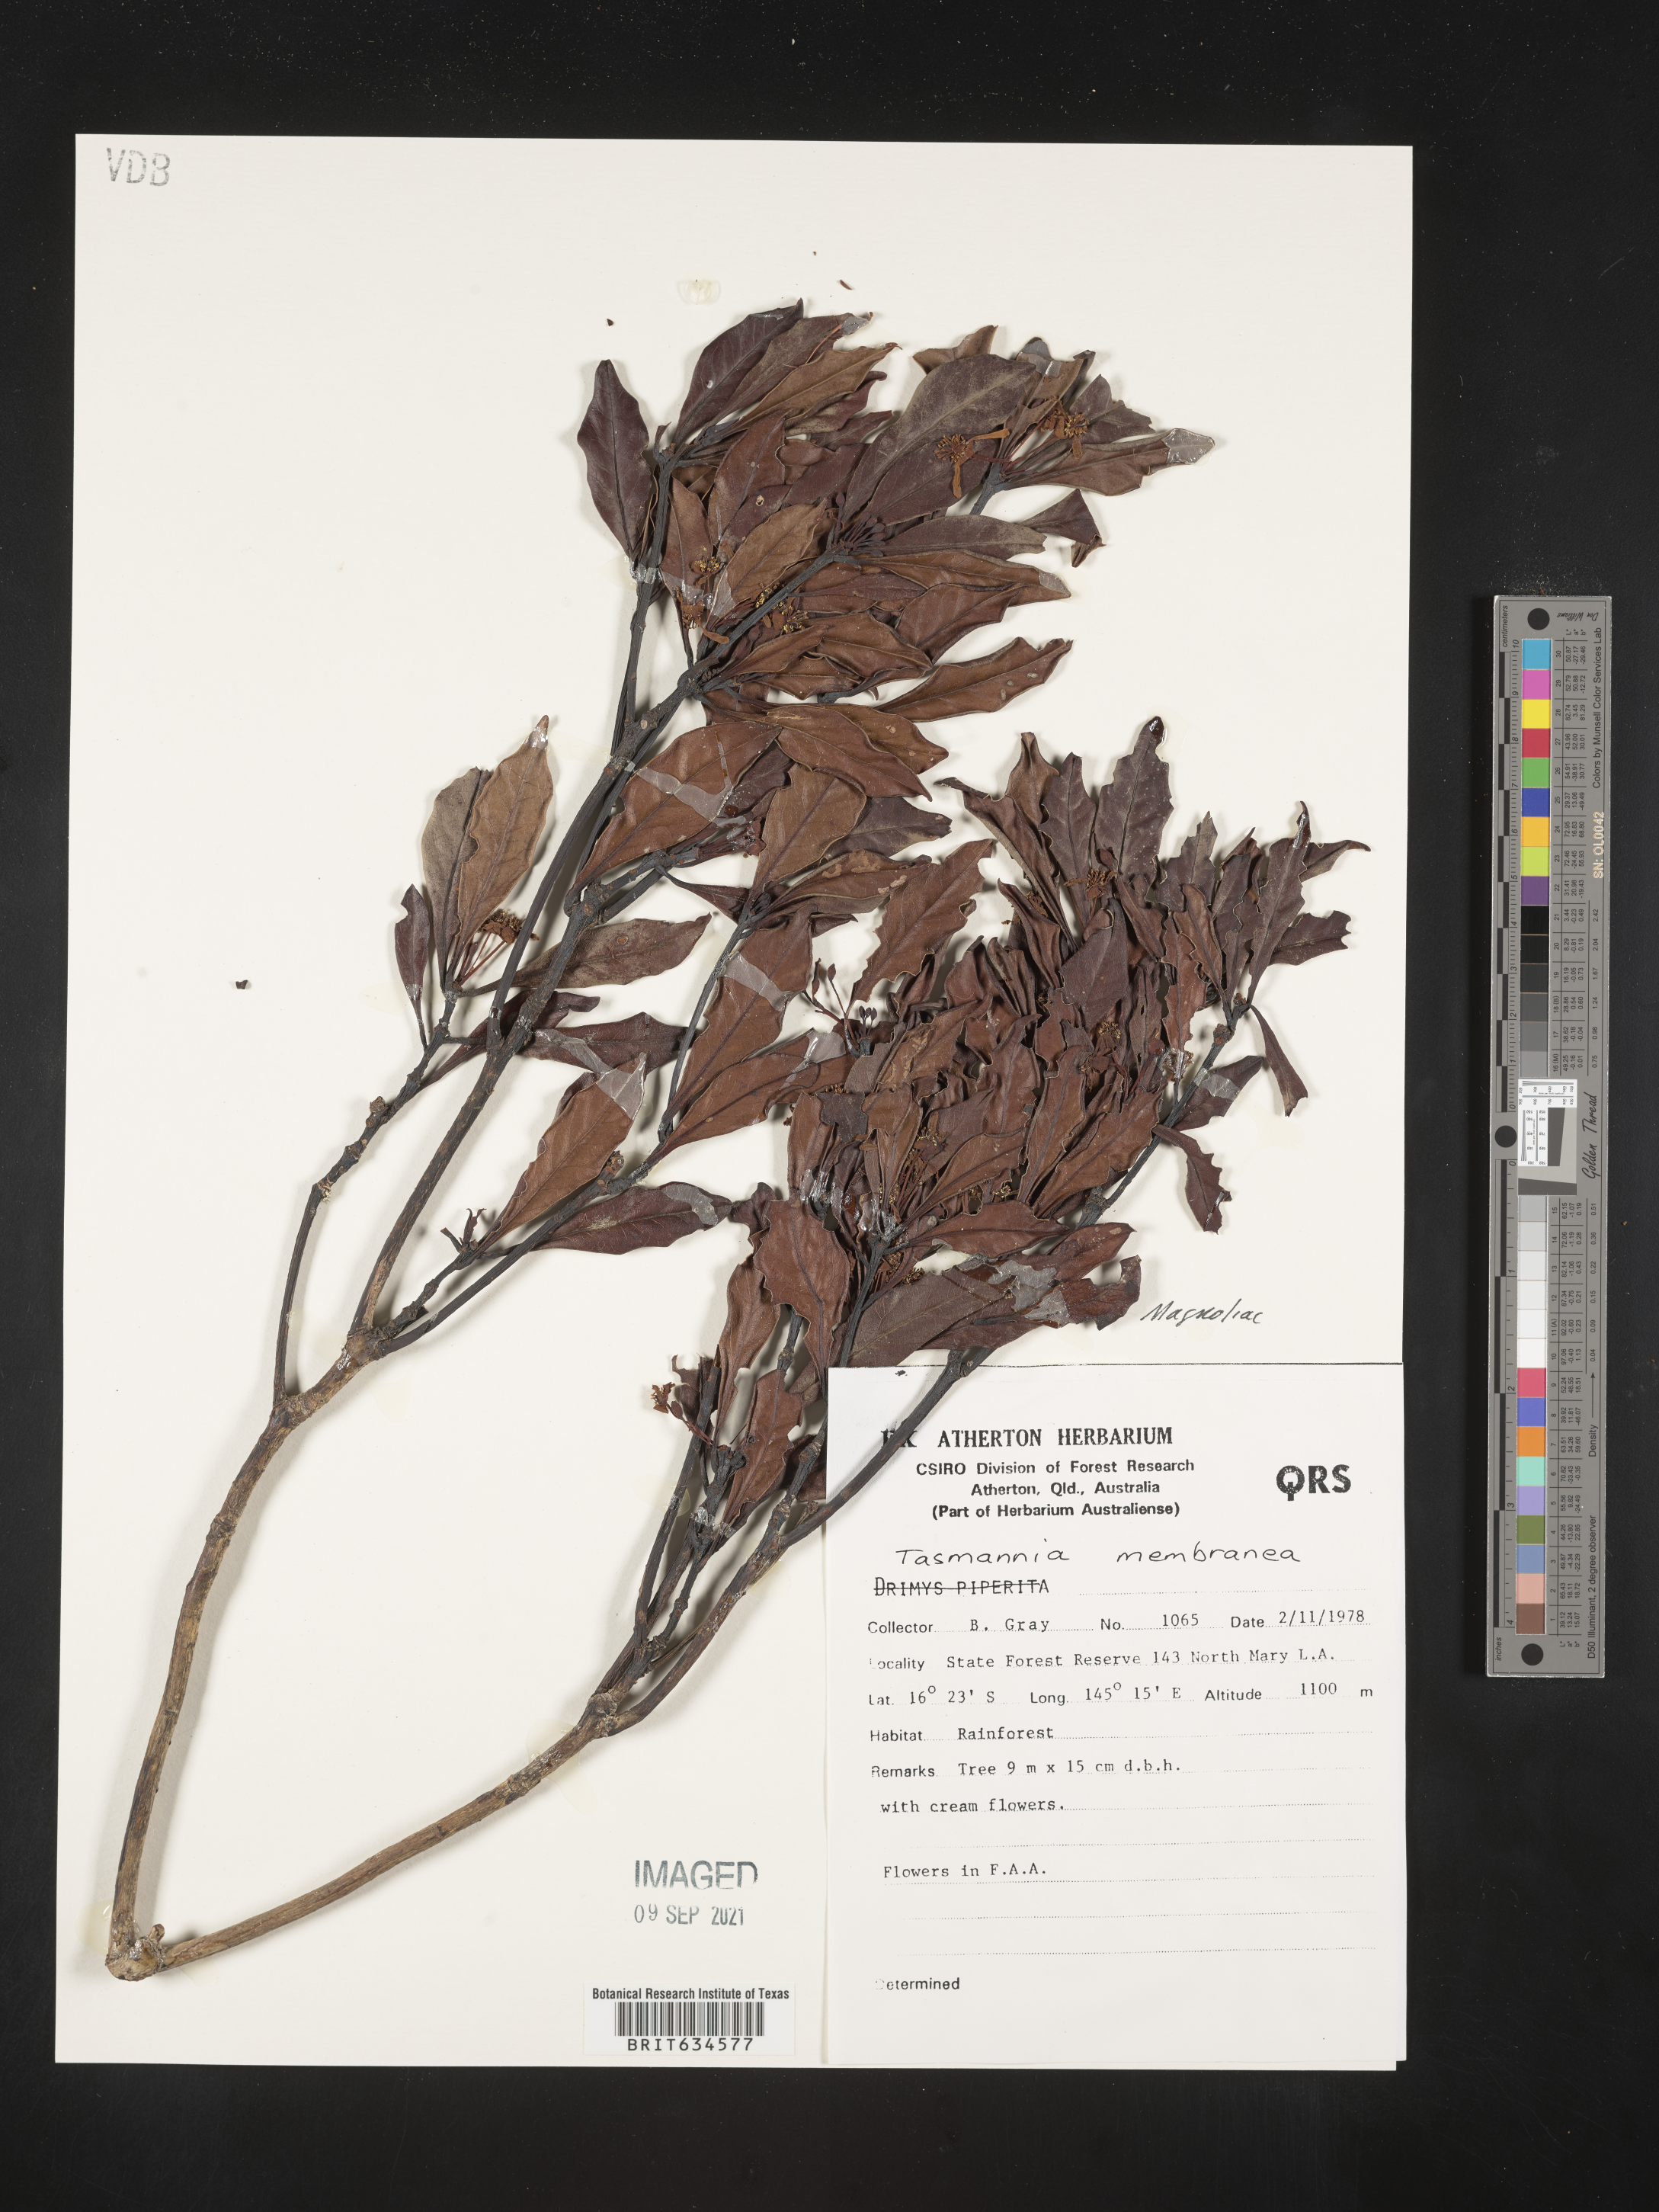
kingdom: Plantae
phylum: Tracheophyta
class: Magnoliopsida
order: Canellales
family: Winteraceae
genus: Tasmannia
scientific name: Tasmannia
